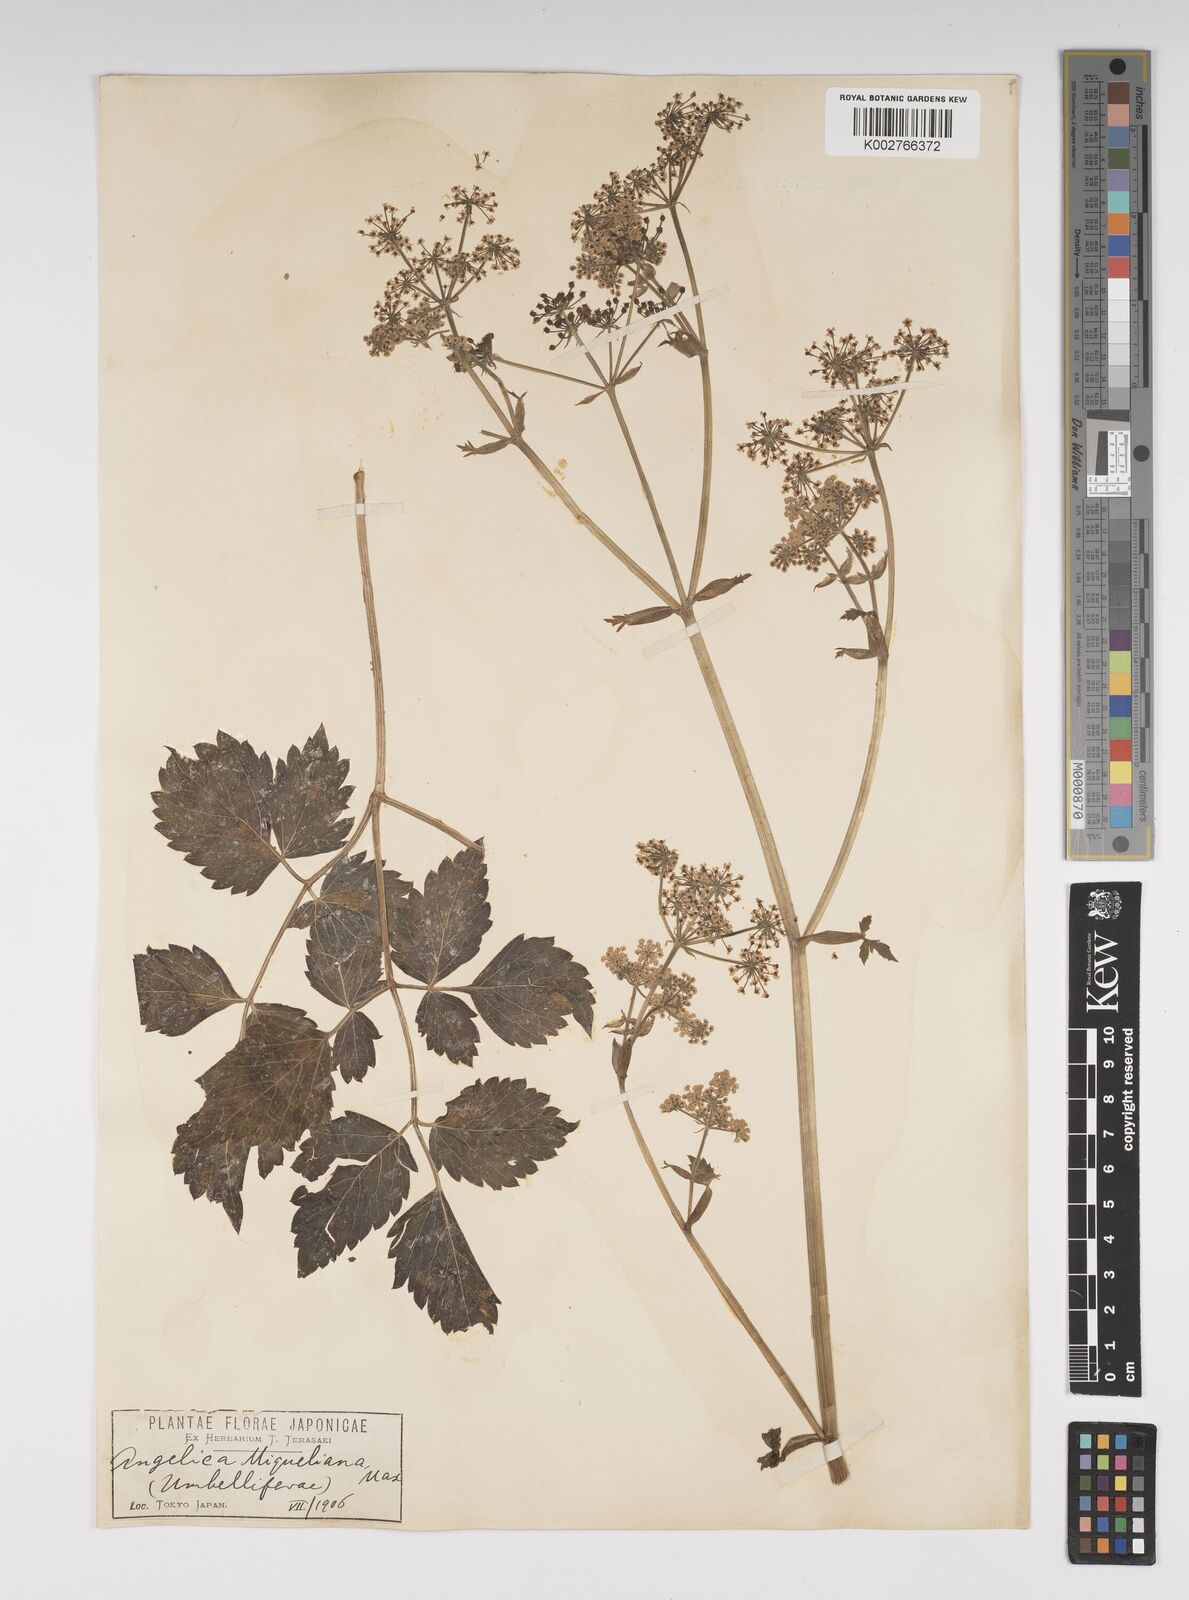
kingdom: Plantae
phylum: Tracheophyta
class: Magnoliopsida
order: Apiales
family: Apiaceae
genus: Ostericum
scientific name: Ostericum sieboldii
